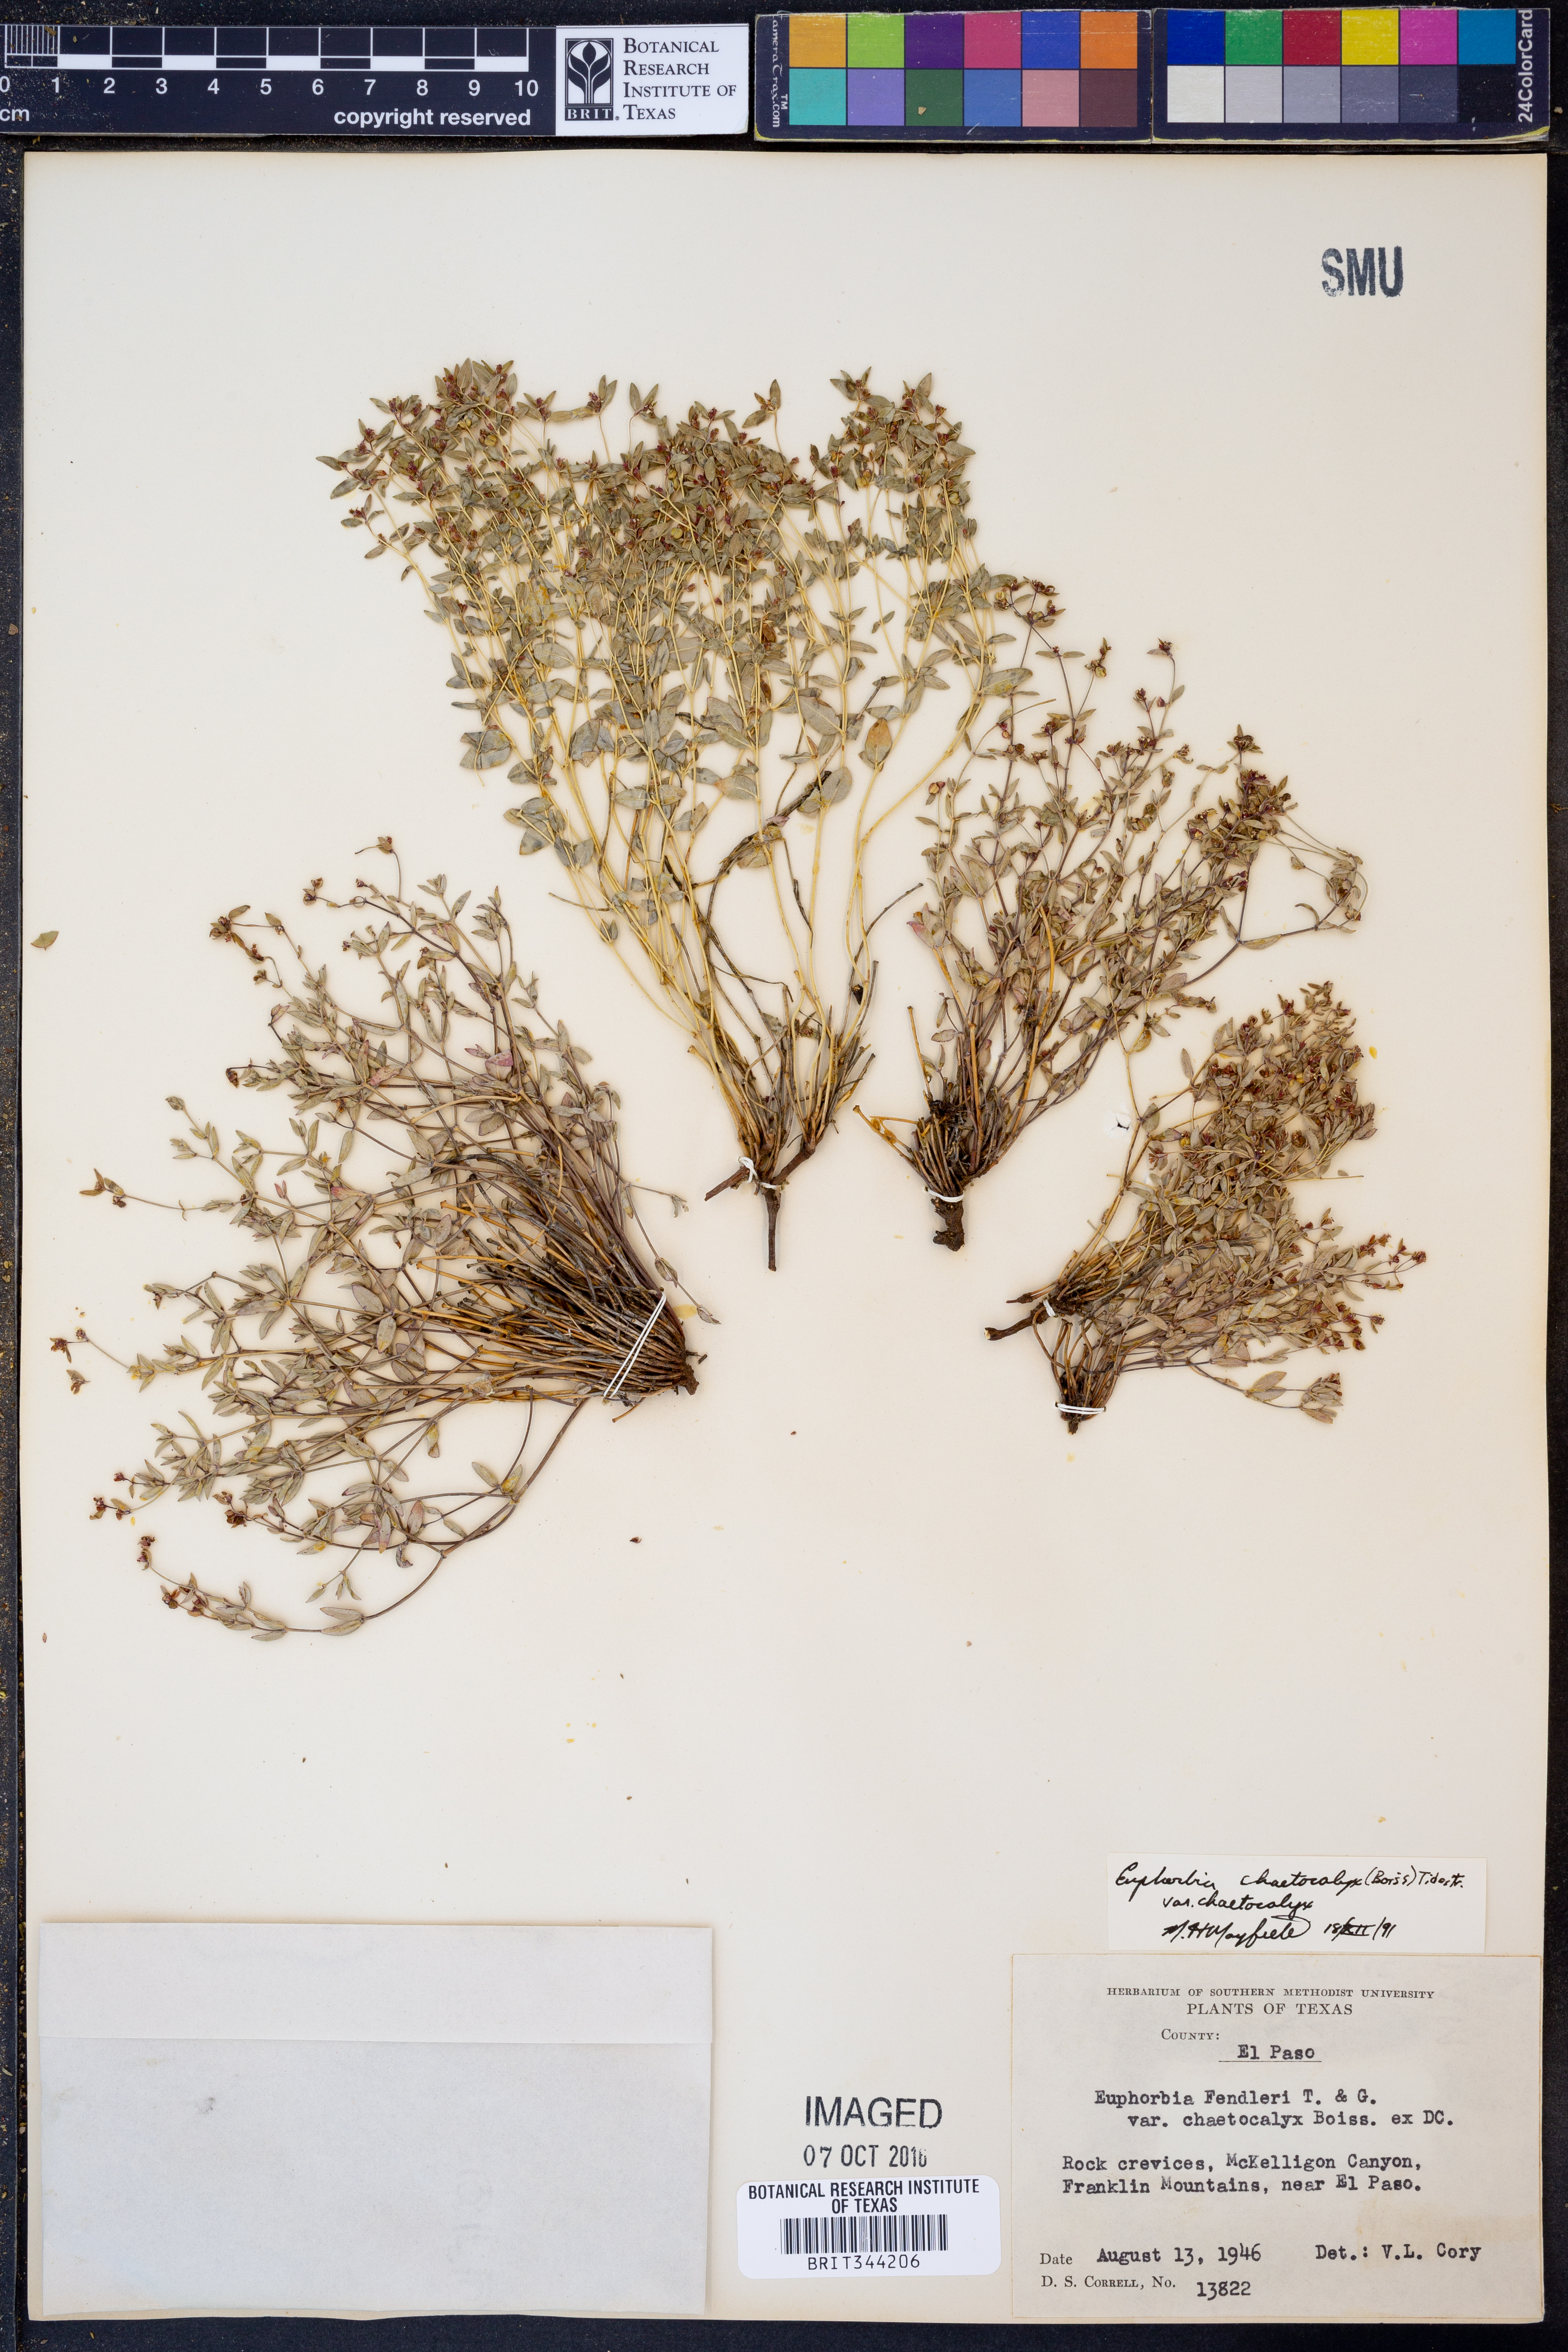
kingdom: Plantae
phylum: Tracheophyta
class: Magnoliopsida
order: Malpighiales
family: Euphorbiaceae
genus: Euphorbia
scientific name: Euphorbia chaetocalyx
